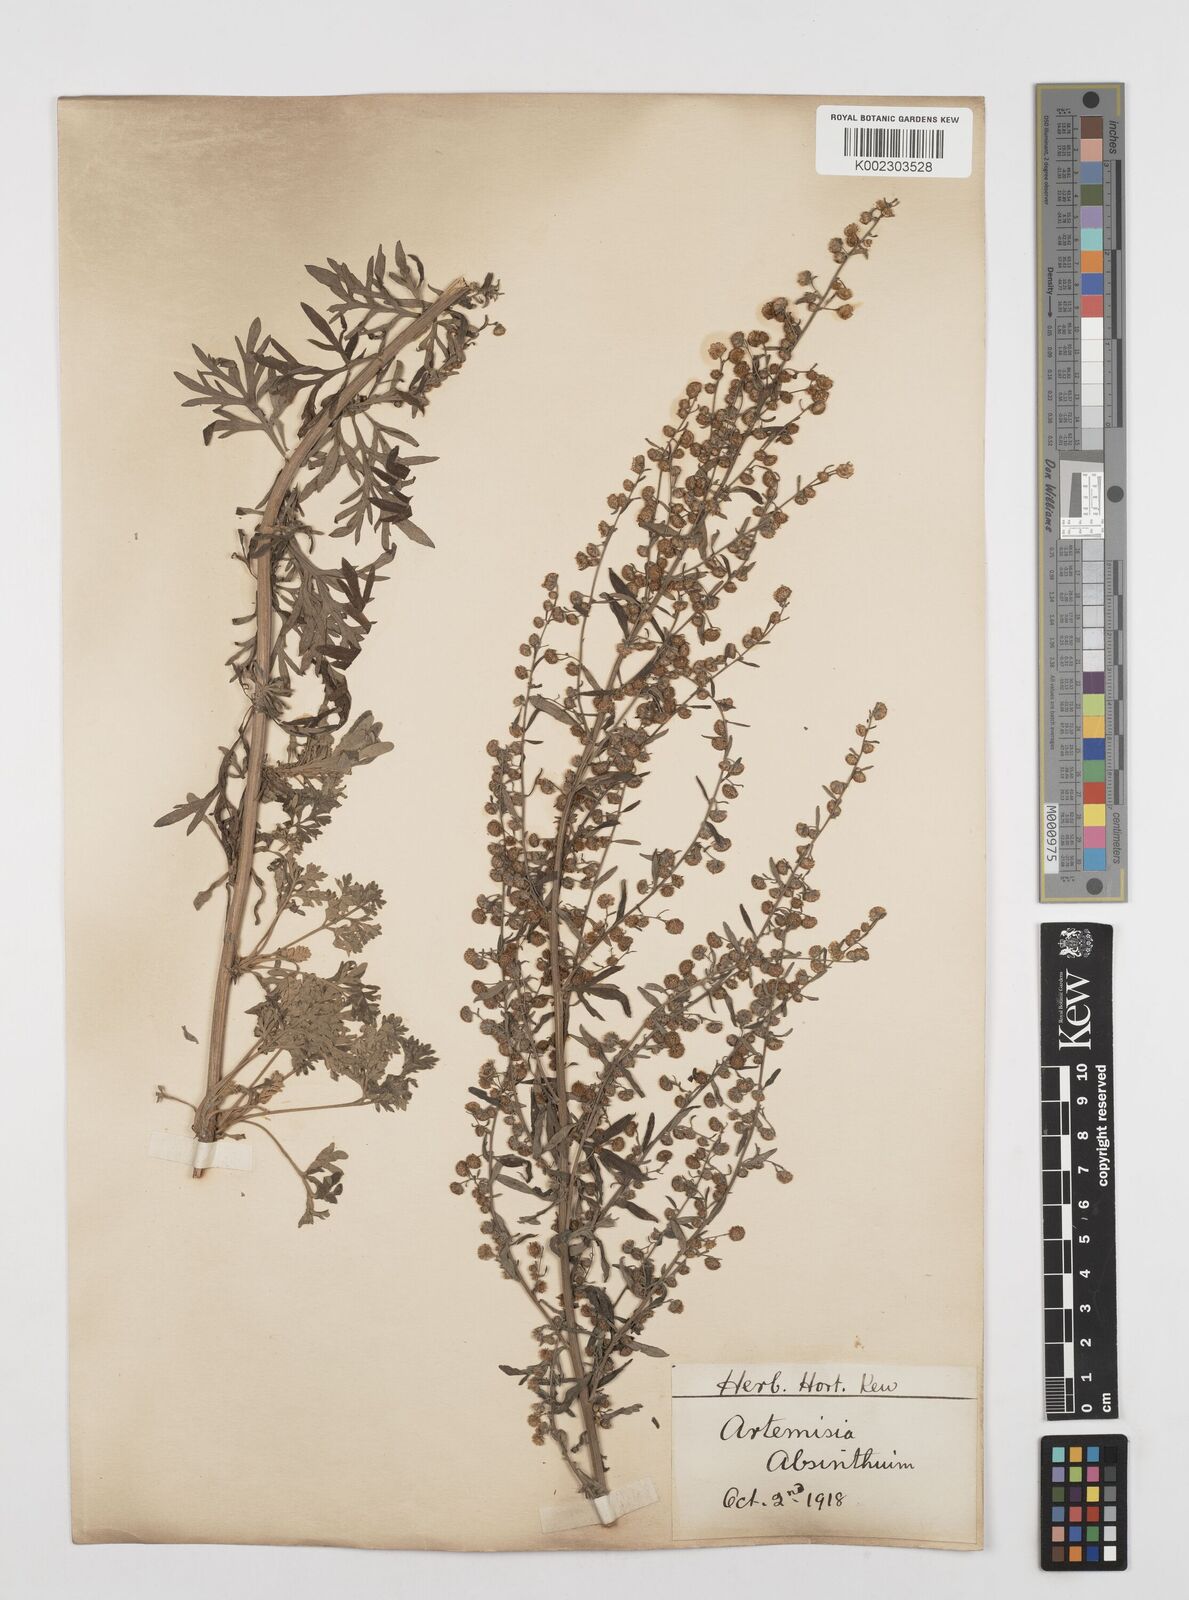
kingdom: Plantae
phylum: Tracheophyta
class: Magnoliopsida
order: Asterales
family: Asteraceae
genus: Artemisia
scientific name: Artemisia absinthium
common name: Wormwood
